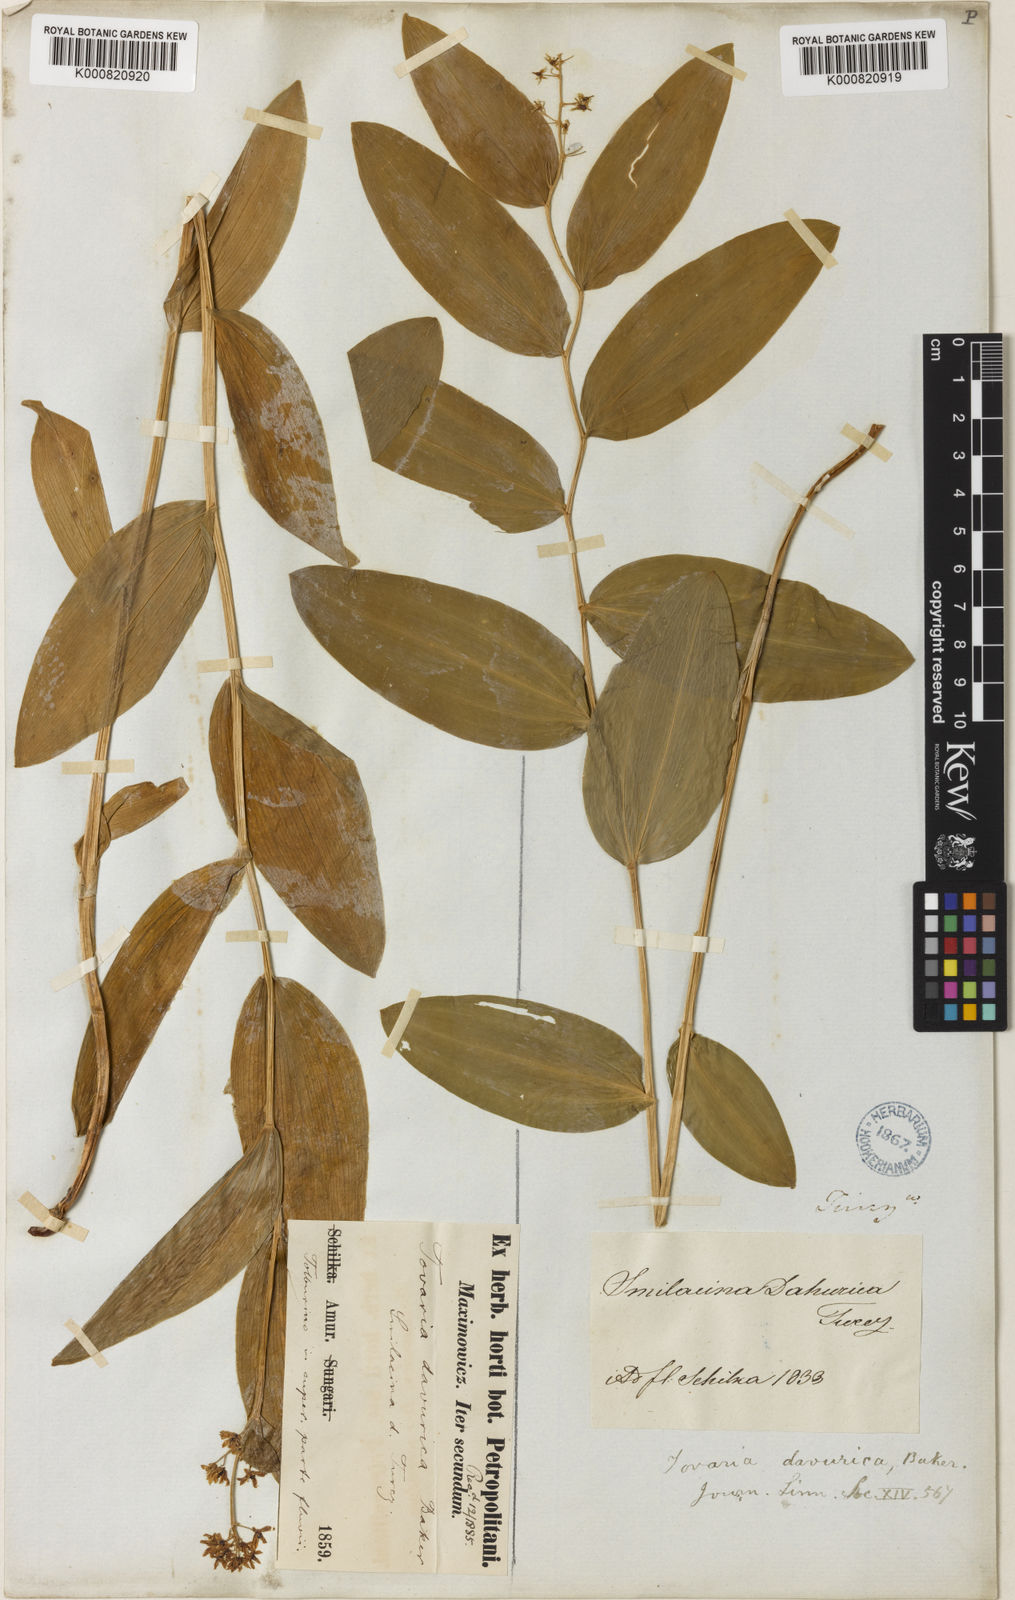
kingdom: Plantae
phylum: Tracheophyta
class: Liliopsida
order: Asparagales
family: Asparagaceae
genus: Maianthemum
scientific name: Maianthemum dahuricum
